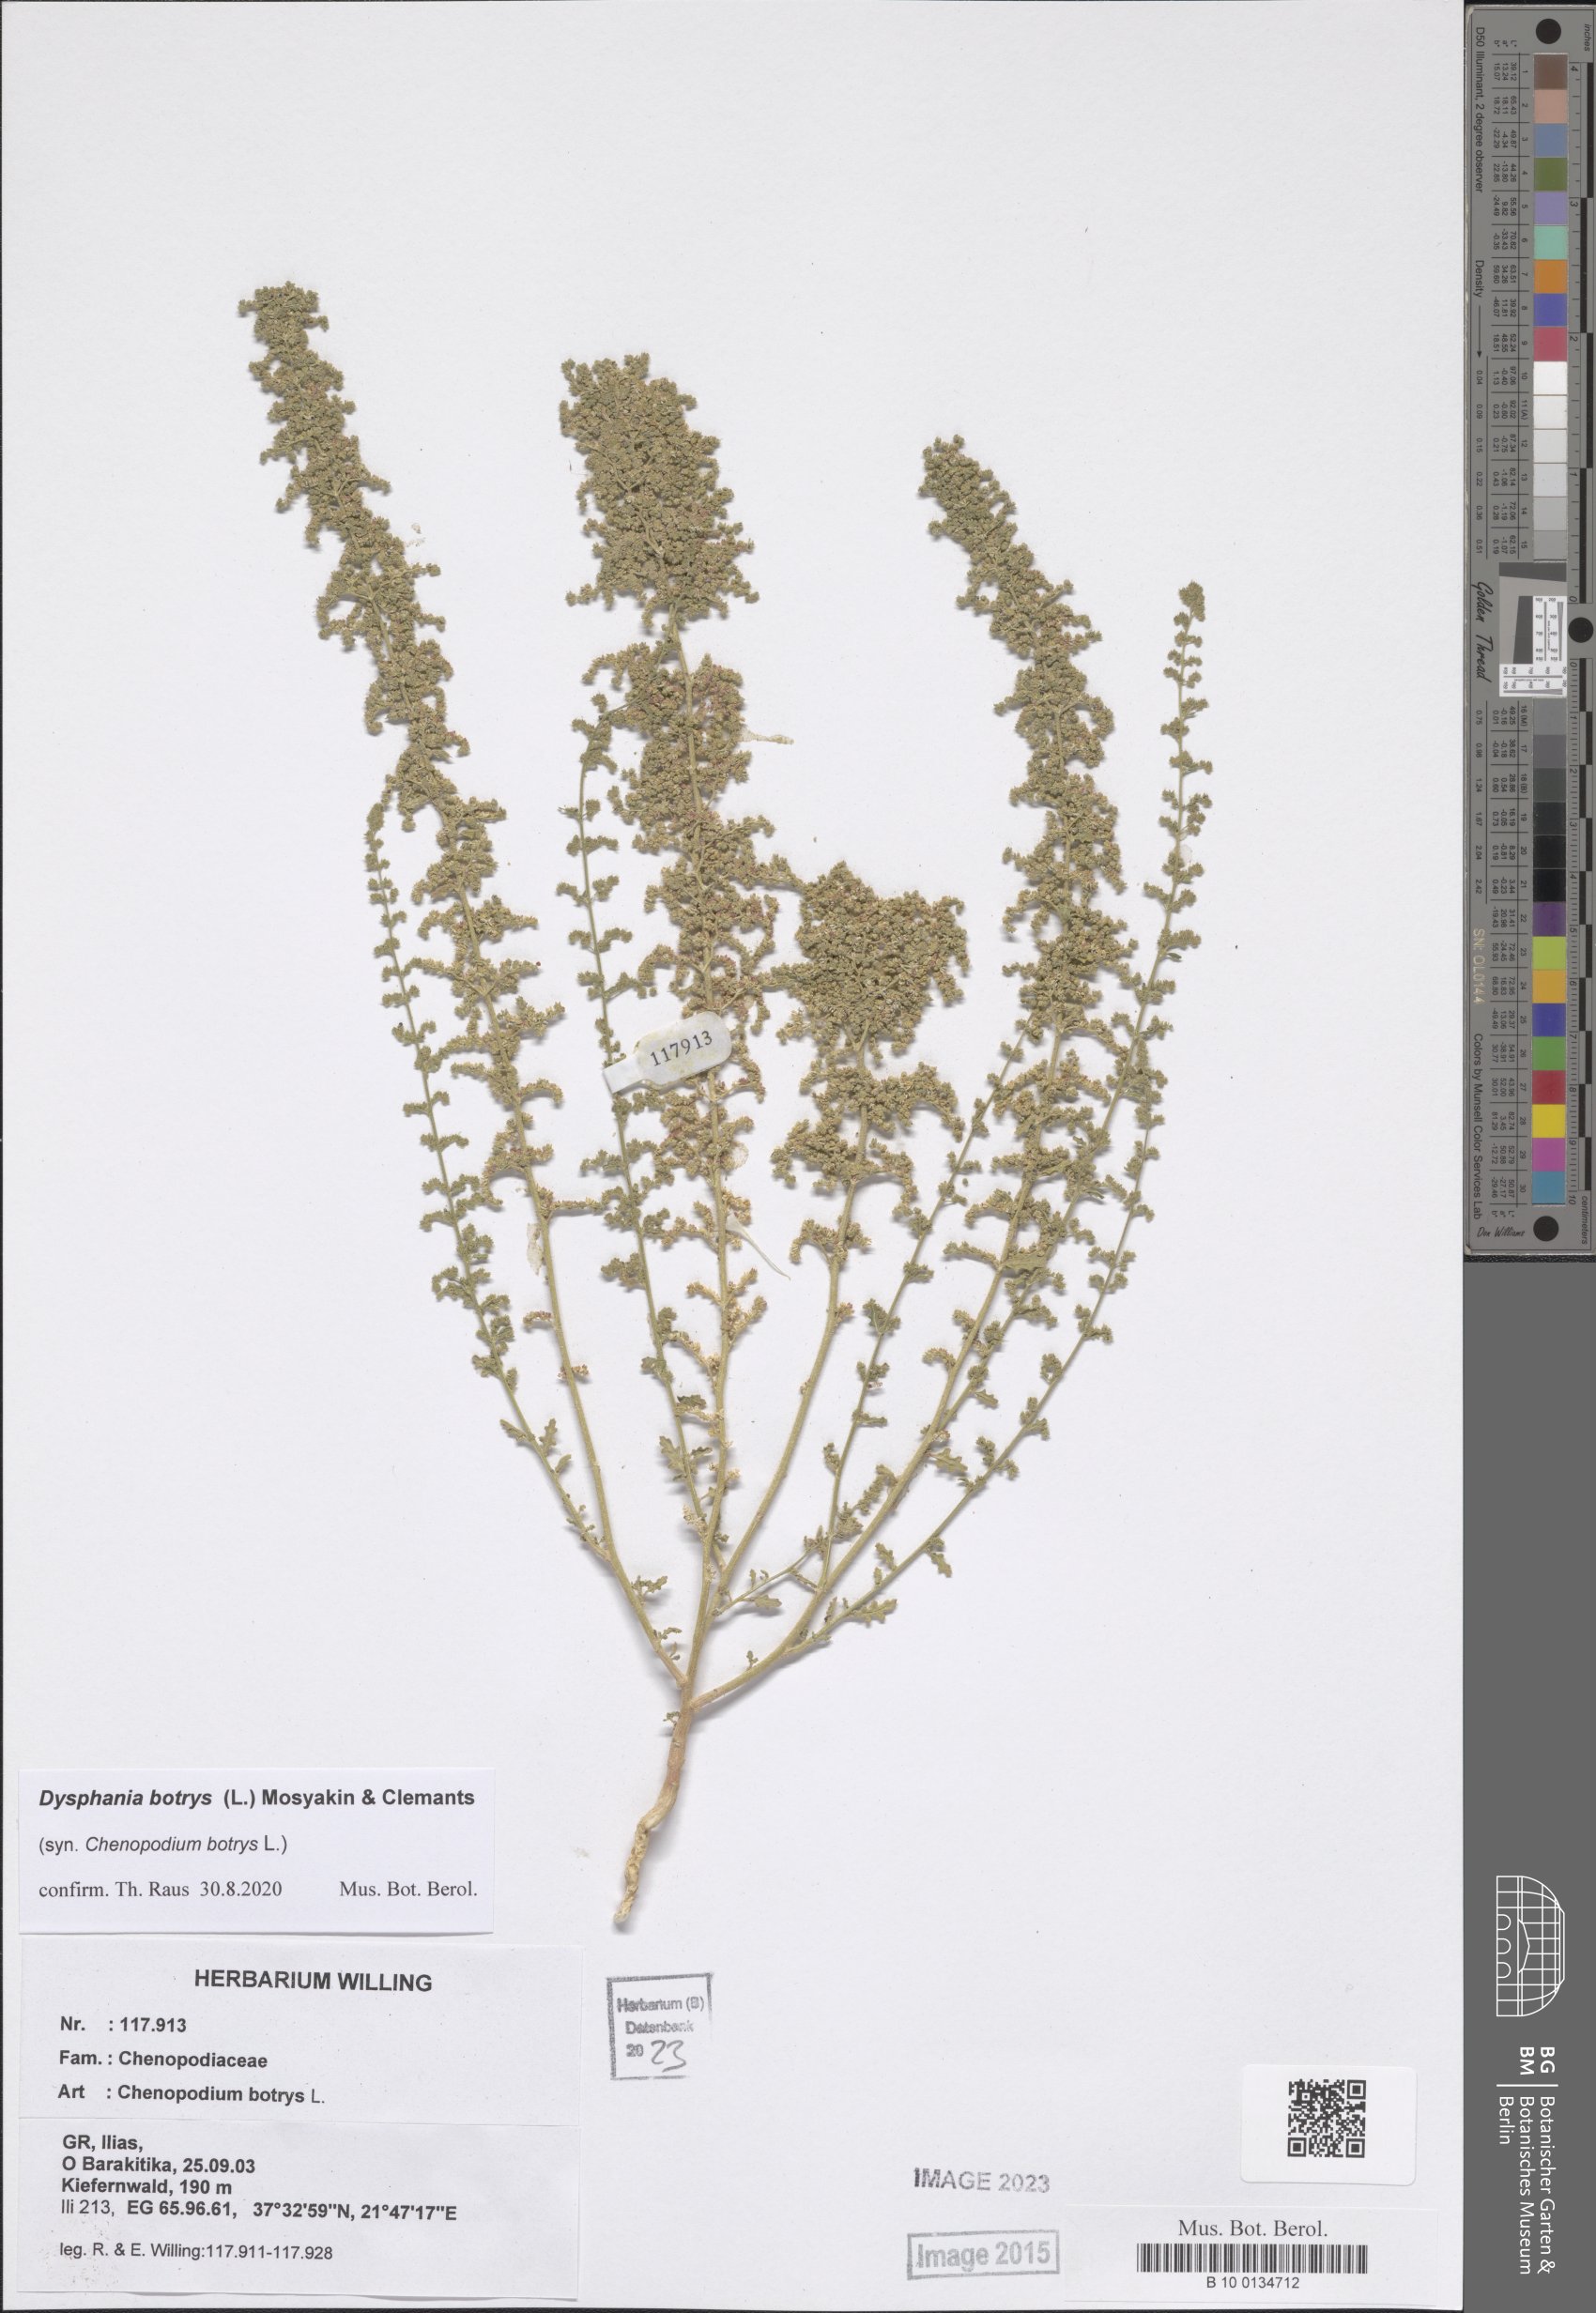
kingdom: Plantae
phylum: Tracheophyta
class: Magnoliopsida
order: Caryophyllales
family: Amaranthaceae
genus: Dysphania
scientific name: Dysphania botrys
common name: Feather-geranium
